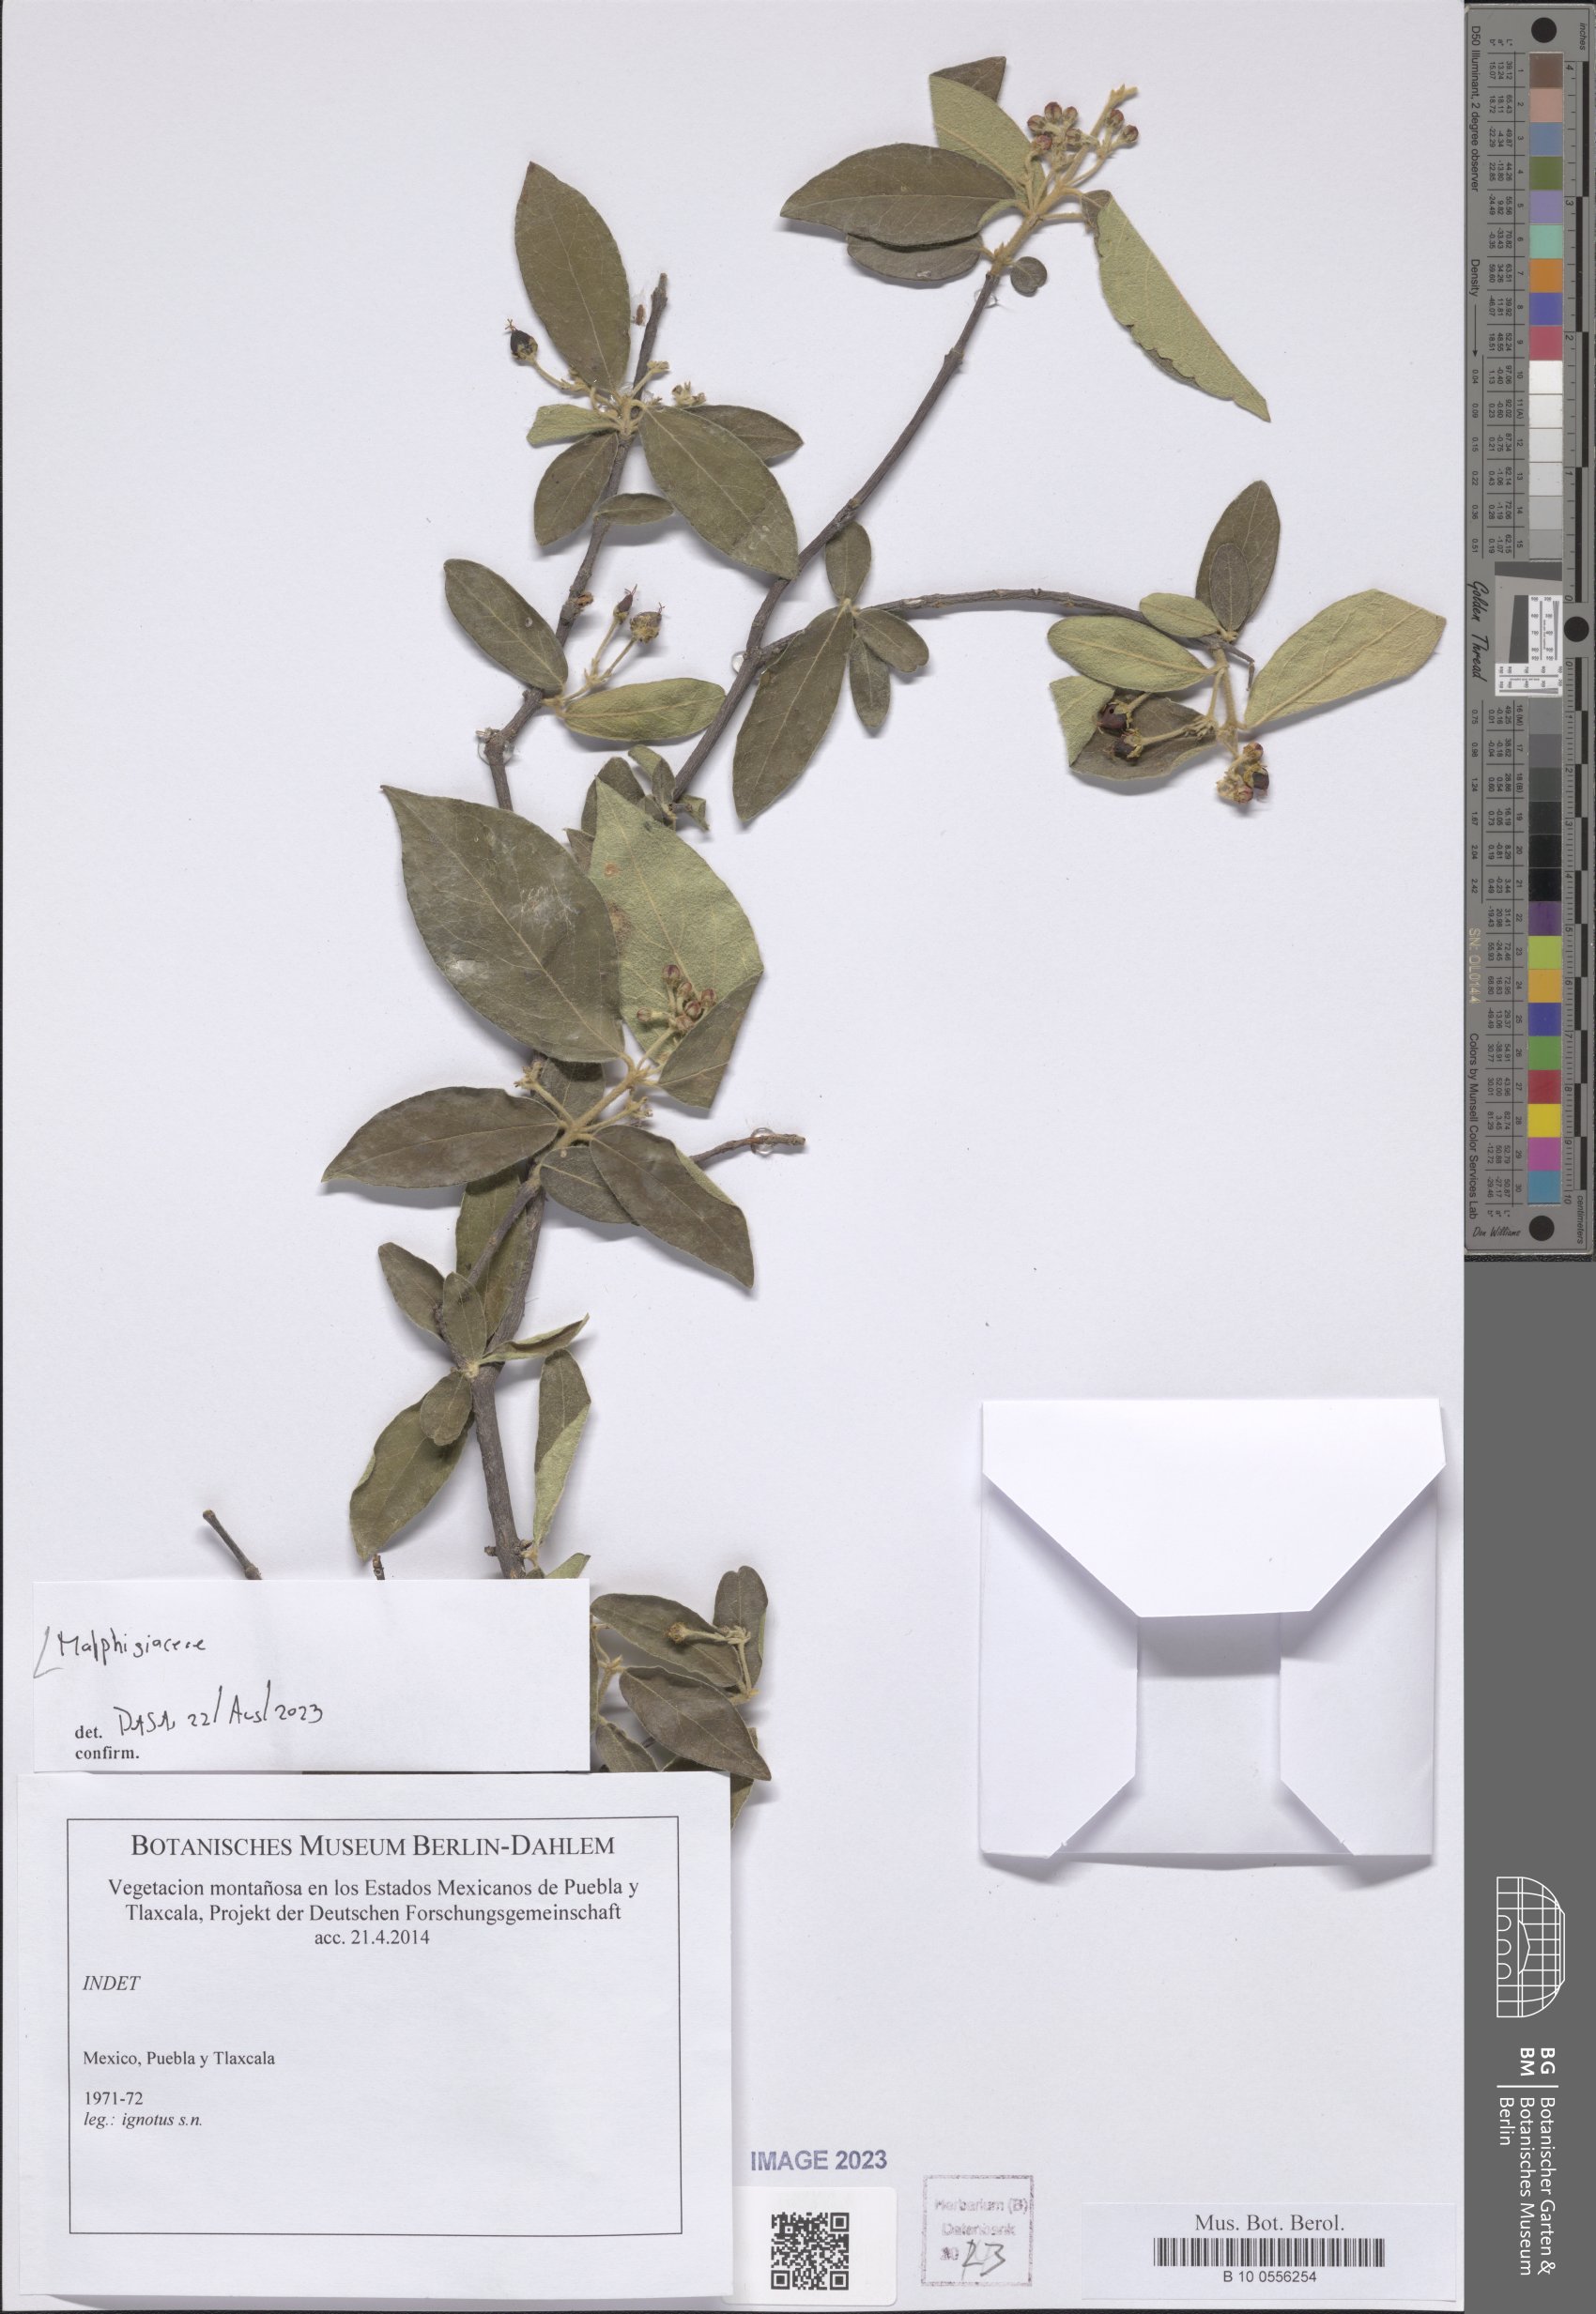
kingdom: Plantae
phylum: Tracheophyta
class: Magnoliopsida
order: Malpighiales
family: Malpighiaceae
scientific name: Malpighiaceae
